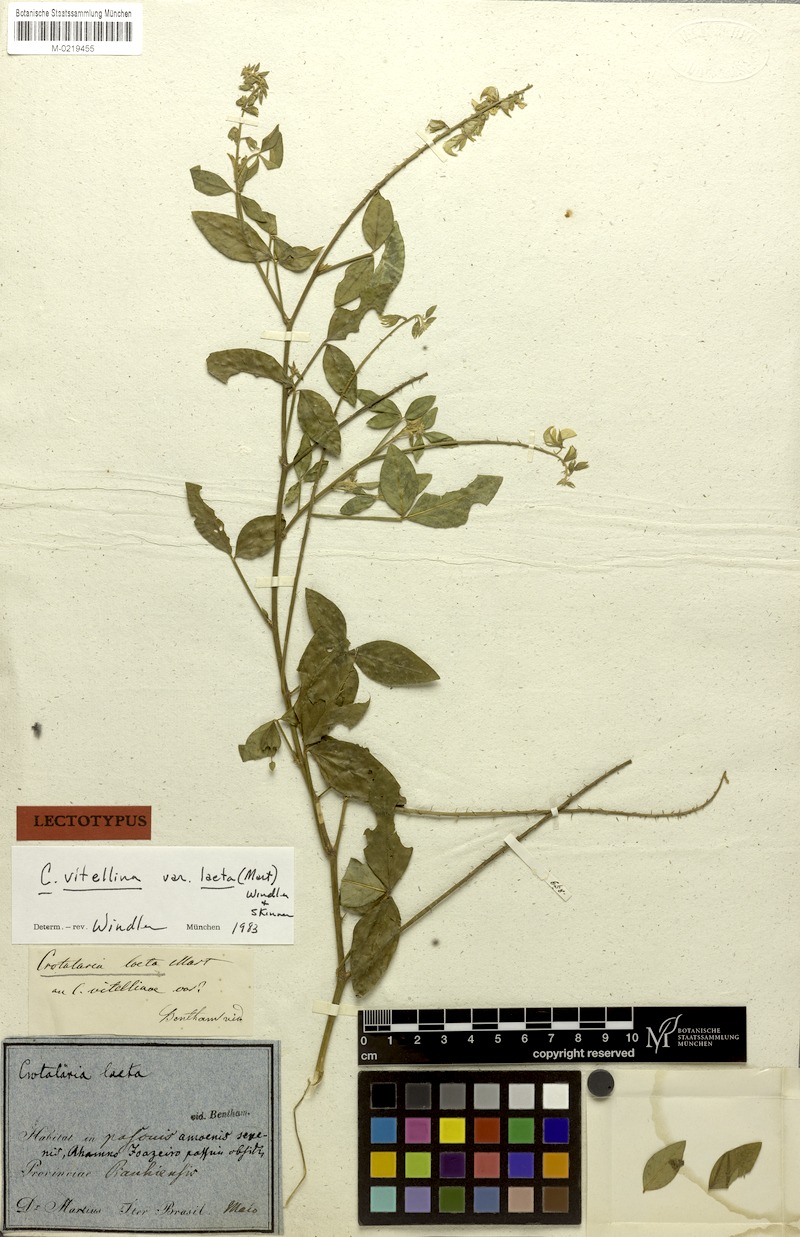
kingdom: Plantae
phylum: Tracheophyta
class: Magnoliopsida
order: Fabales
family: Fabaceae
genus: Crotalaria
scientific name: Crotalaria laeta
